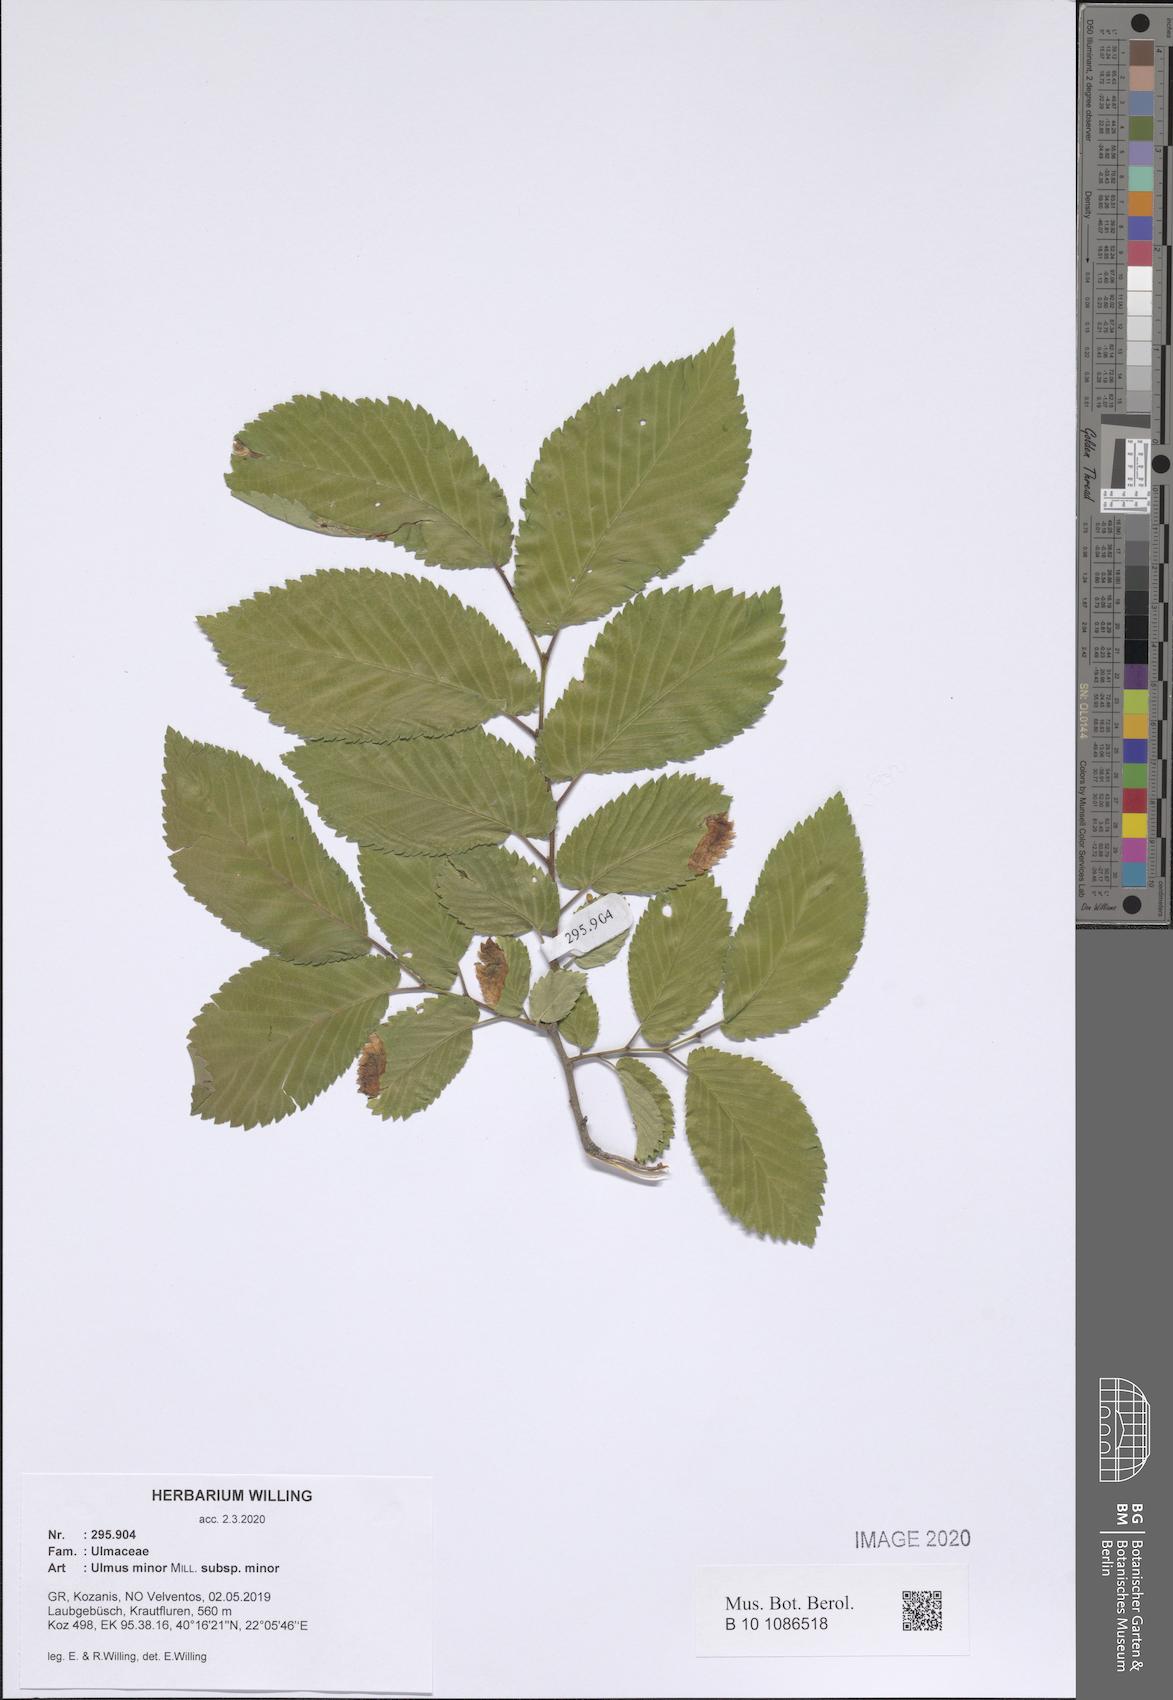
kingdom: Plantae
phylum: Tracheophyta
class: Magnoliopsida
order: Rosales
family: Ulmaceae
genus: Ulmus
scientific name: Ulmus minor
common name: Small-leaved elm
